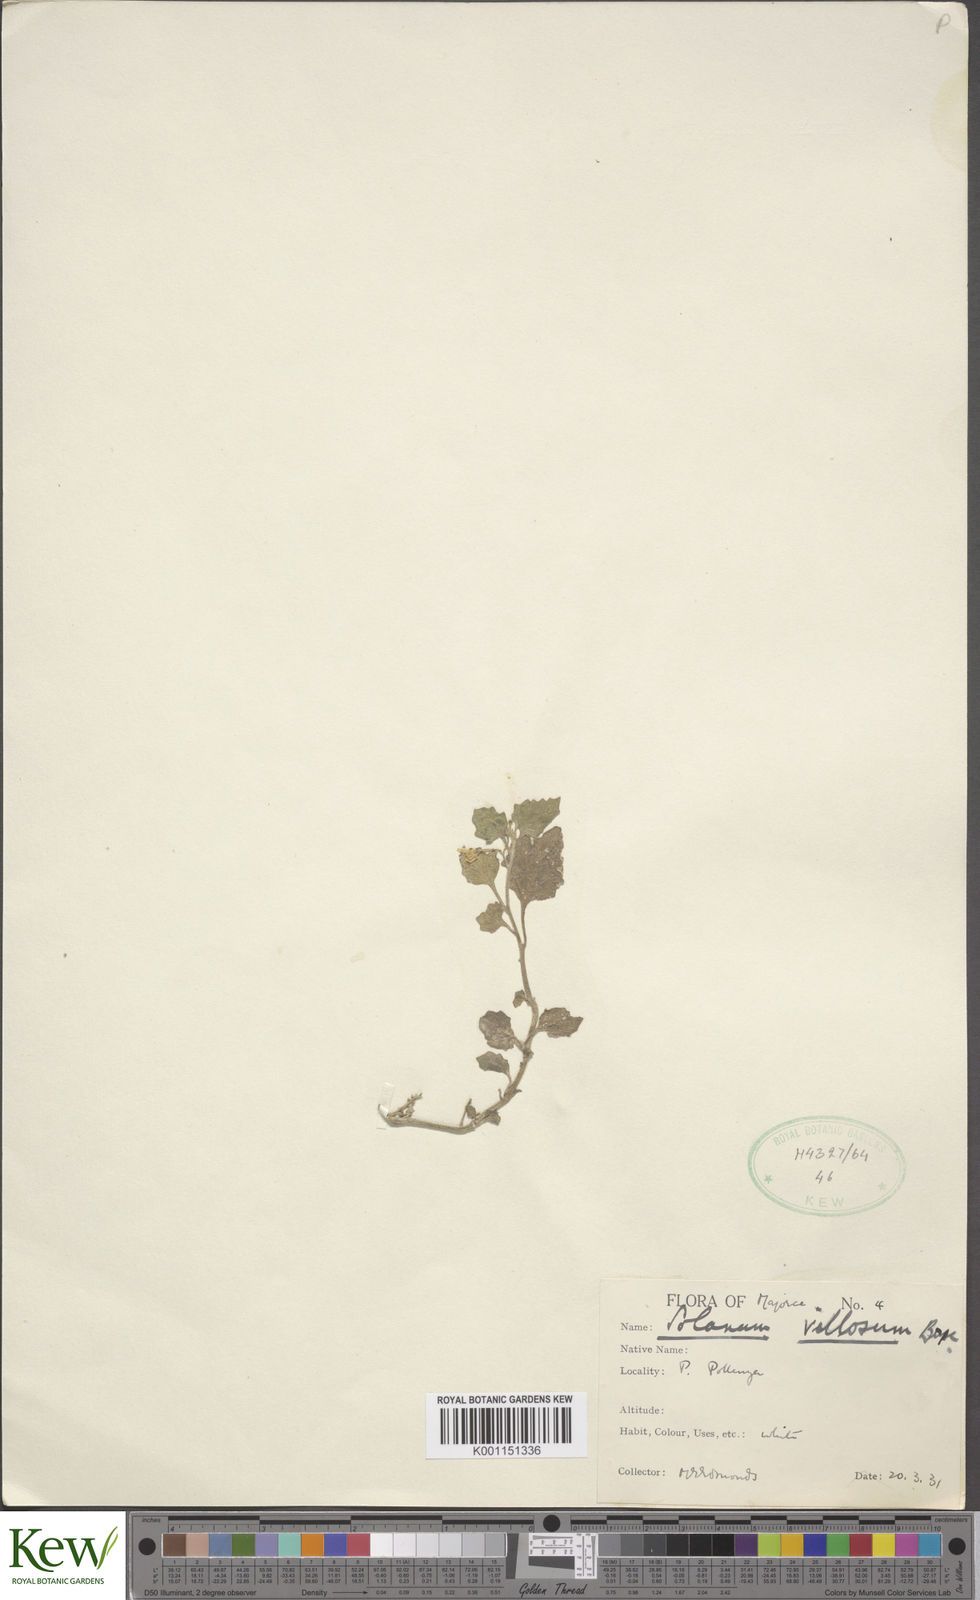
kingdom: Plantae
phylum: Tracheophyta
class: Magnoliopsida
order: Solanales
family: Solanaceae
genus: Solanum
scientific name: Solanum villosum
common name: Red nightshade
